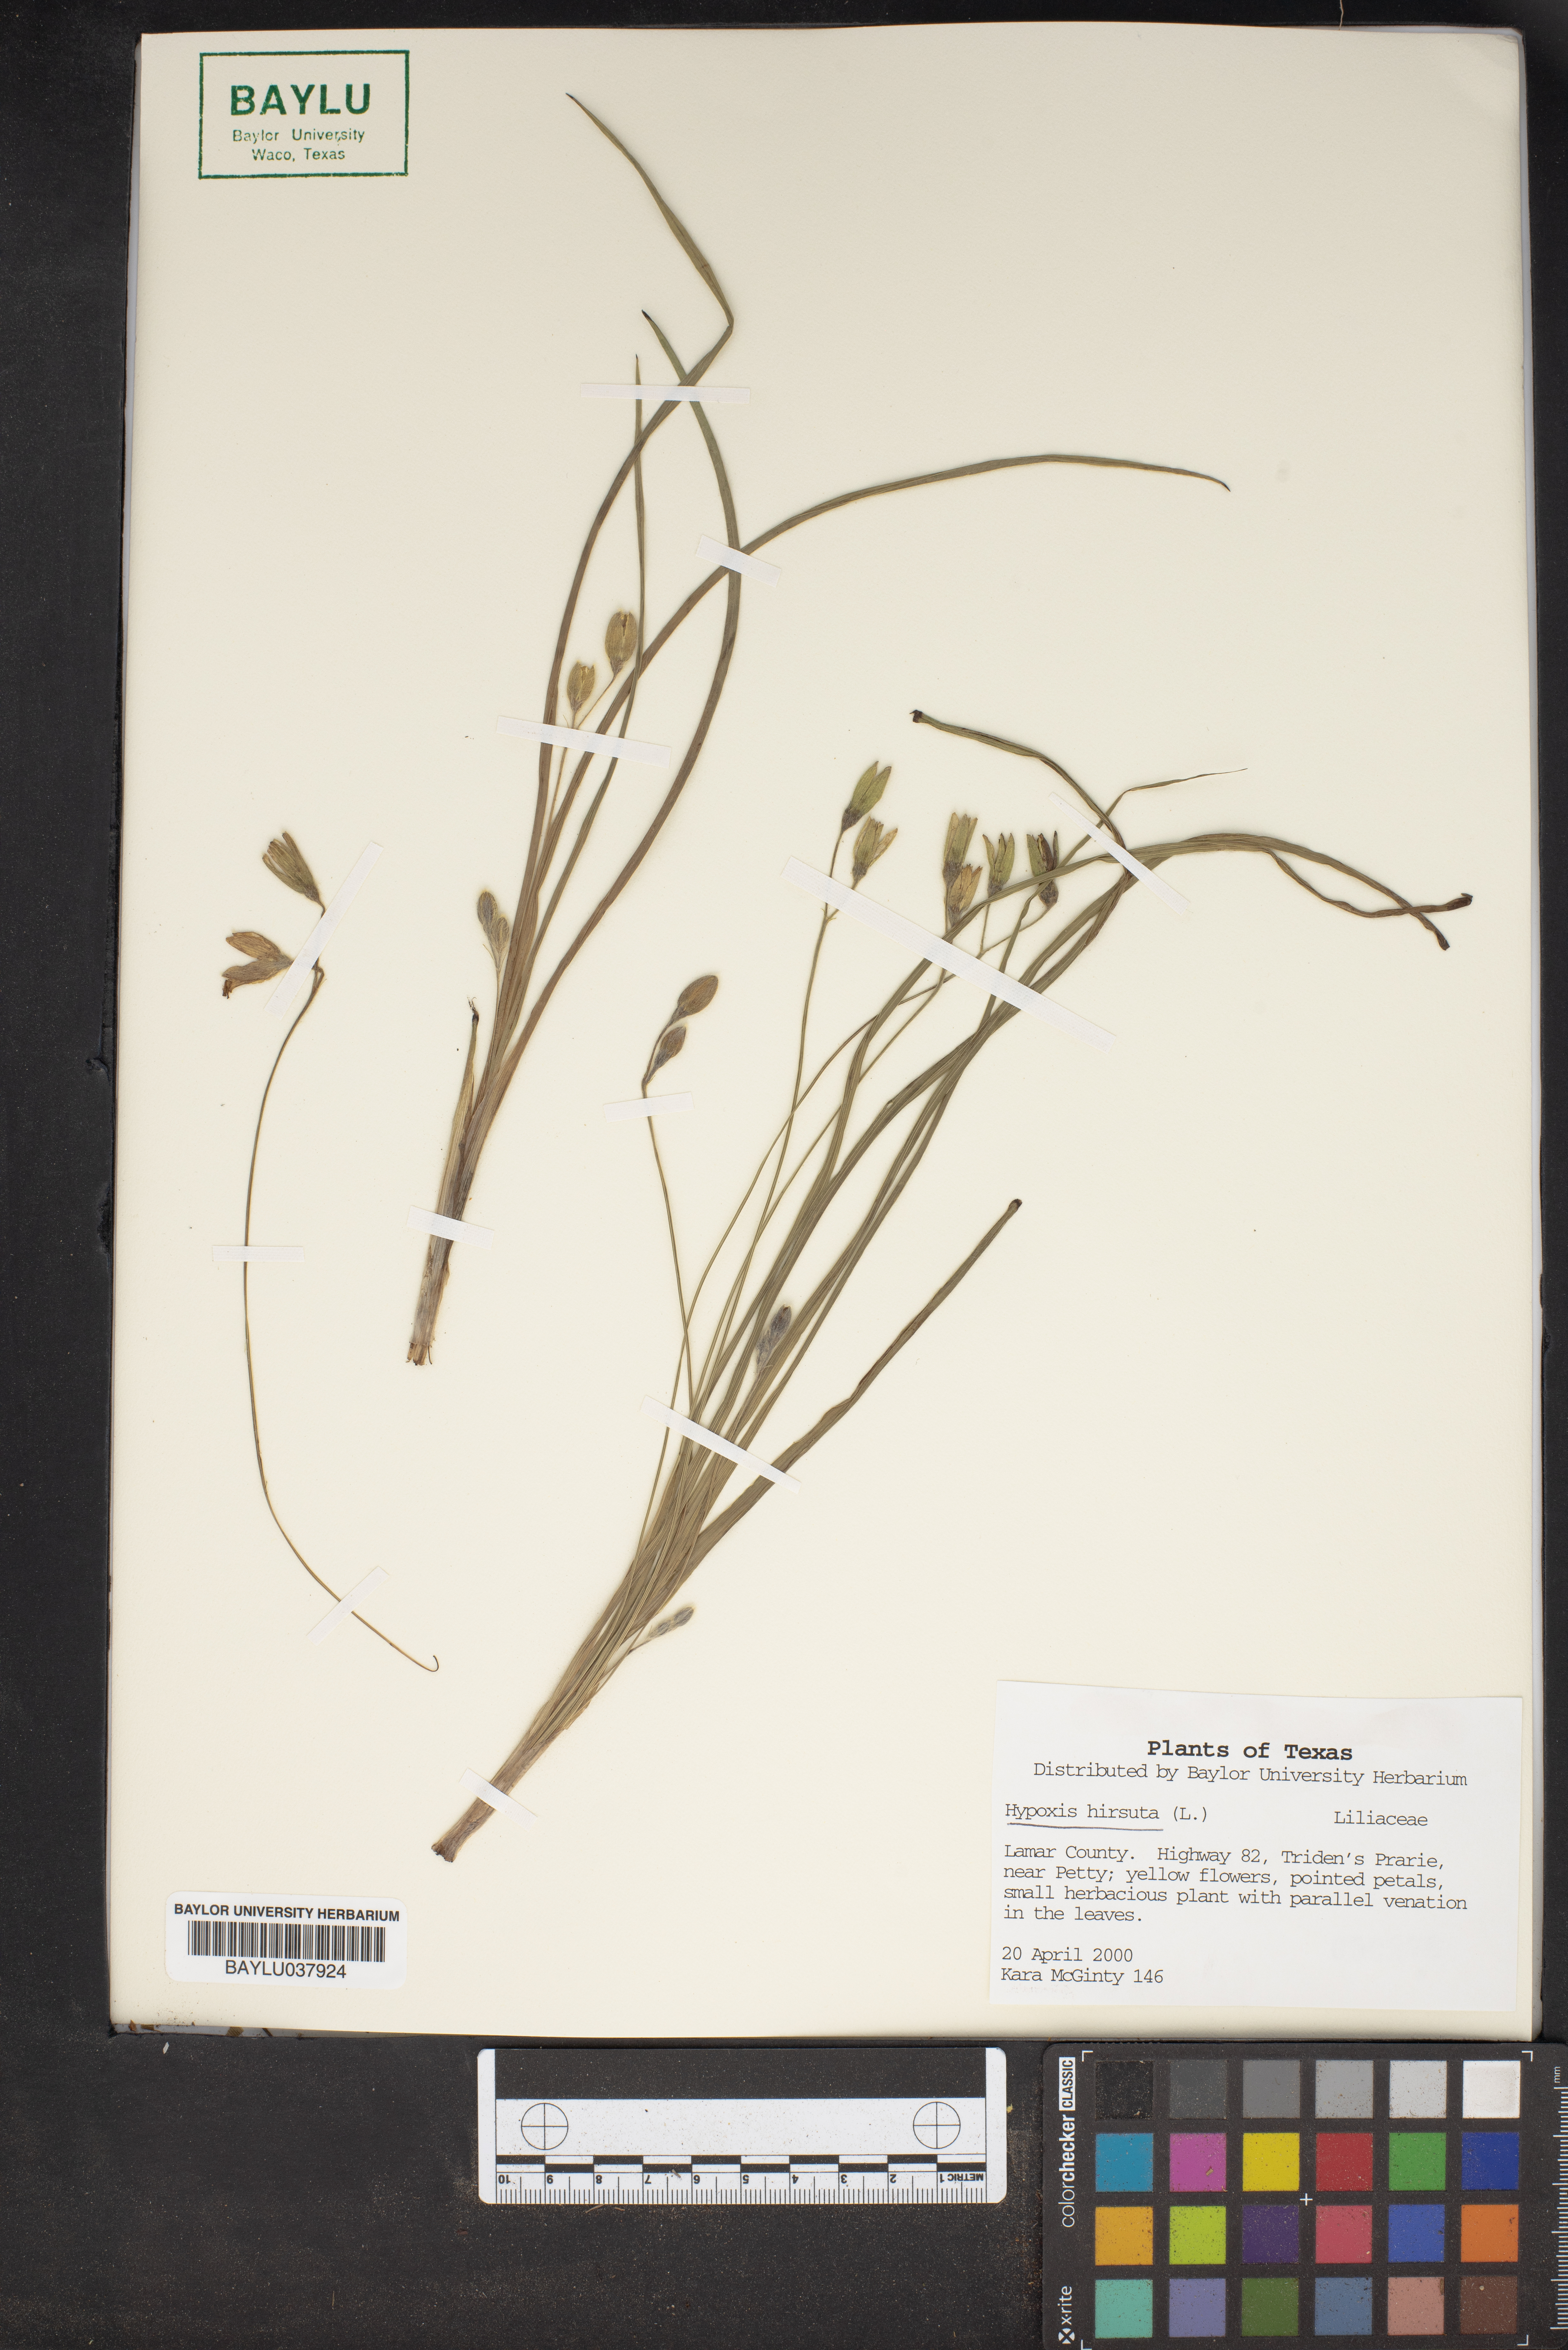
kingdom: Plantae
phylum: Tracheophyta
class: Liliopsida
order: Asparagales
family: Hypoxidaceae
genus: Hypoxis
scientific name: Hypoxis hirsuta
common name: Common goldstar
